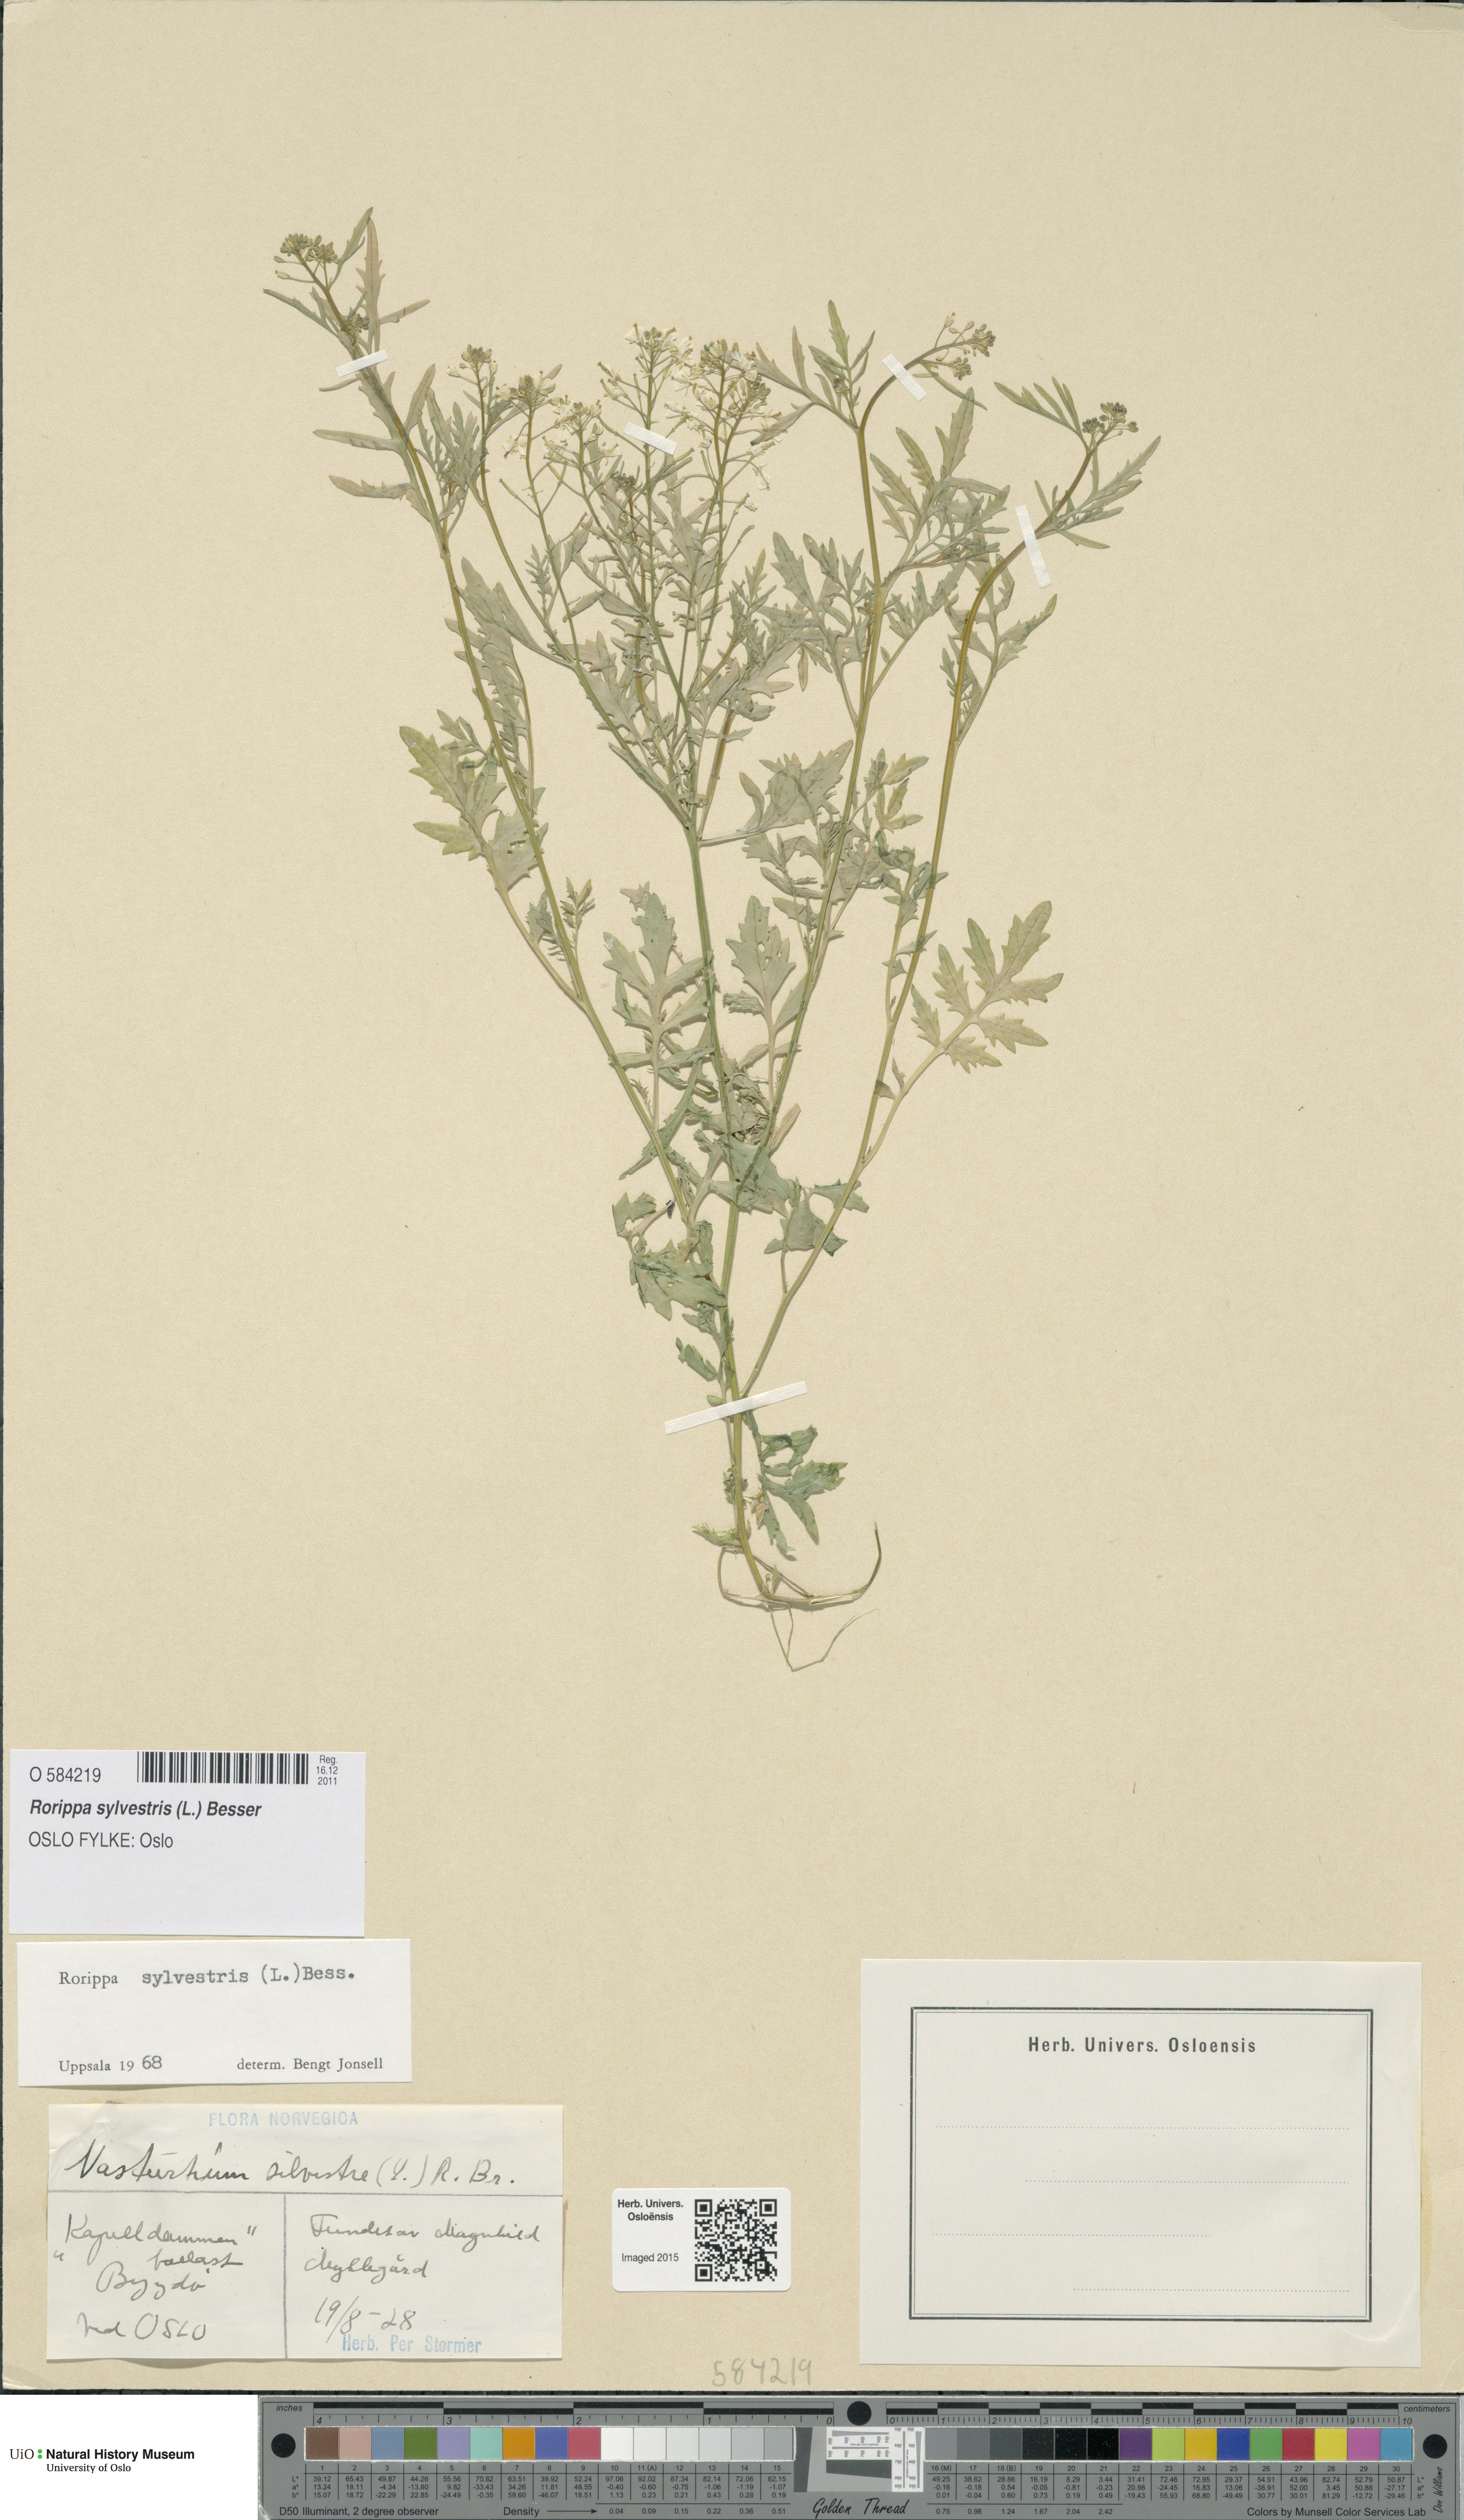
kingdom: Plantae
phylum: Tracheophyta
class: Magnoliopsida
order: Brassicales
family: Brassicaceae
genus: Rorippa
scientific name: Rorippa sylvestris
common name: Creeping yellowcress
